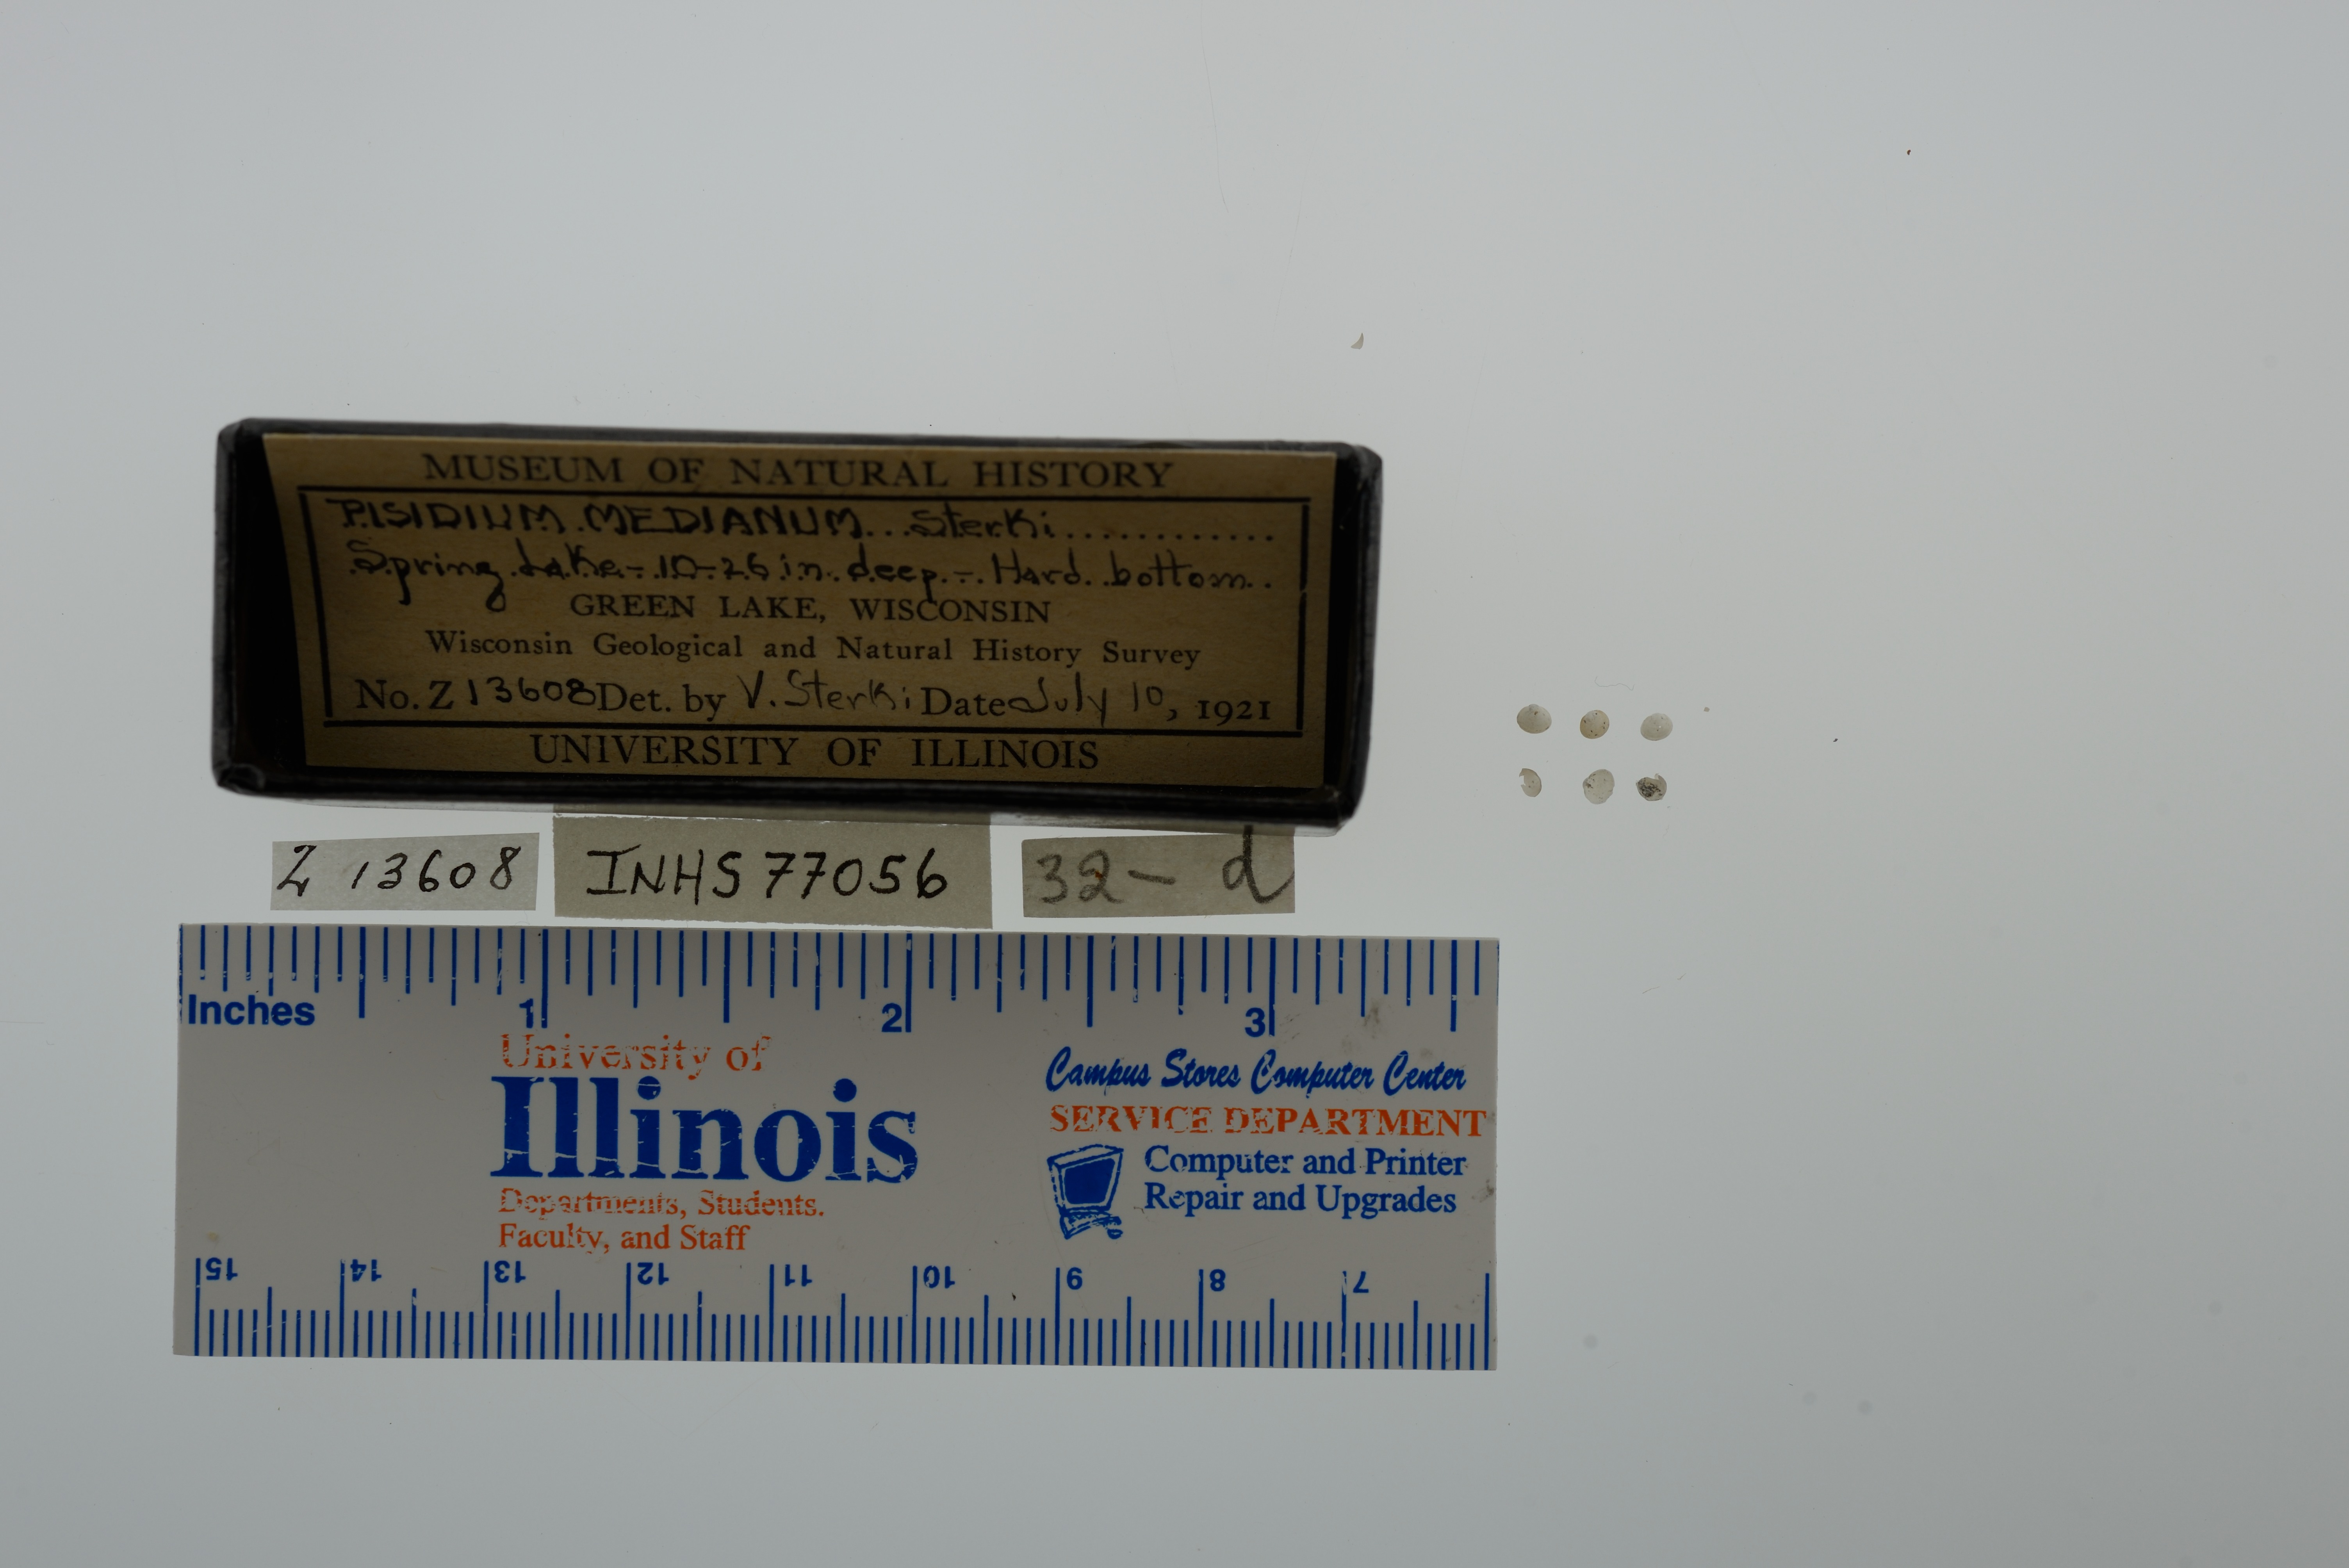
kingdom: Animalia
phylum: Mollusca
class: Bivalvia
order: Sphaeriida
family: Sphaeriidae
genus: Euglesa
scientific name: Euglesa ferruginea
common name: Rusty peaclam
